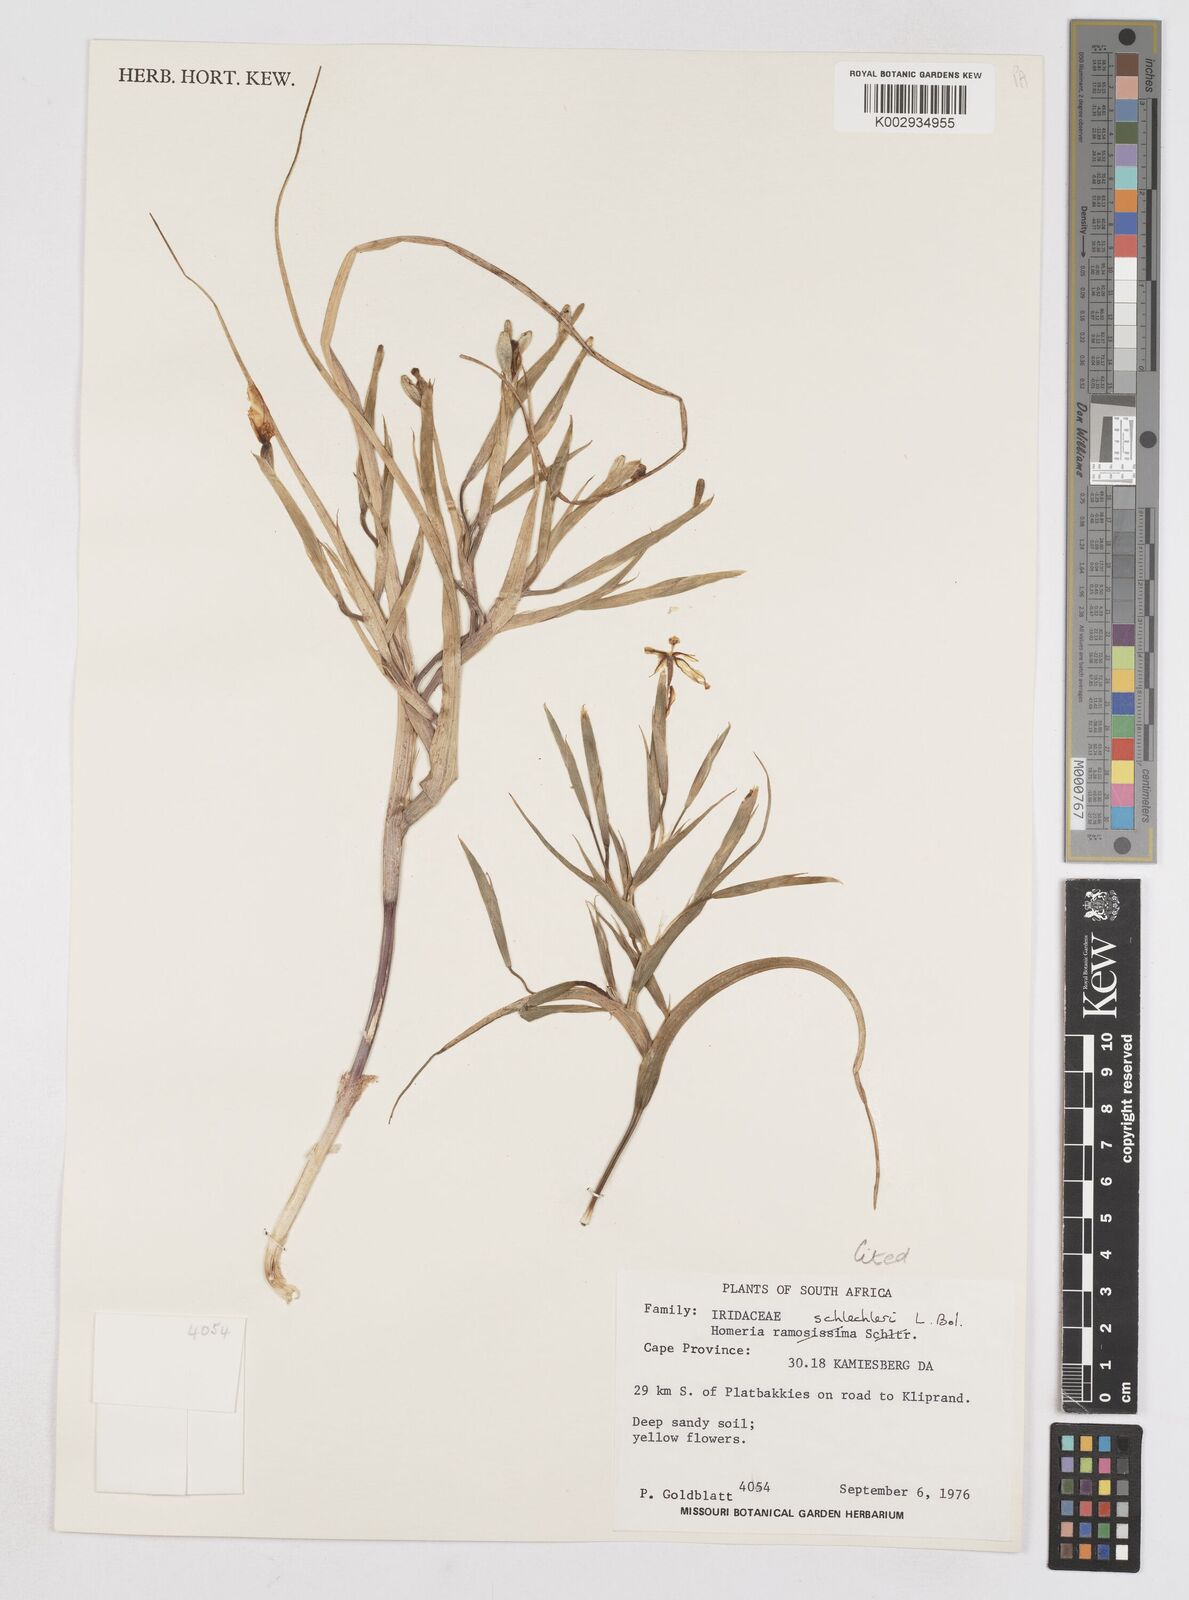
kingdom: Plantae
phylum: Tracheophyta
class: Liliopsida
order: Asparagales
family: Iridaceae
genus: Moraea
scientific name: Moraea schlechteri
